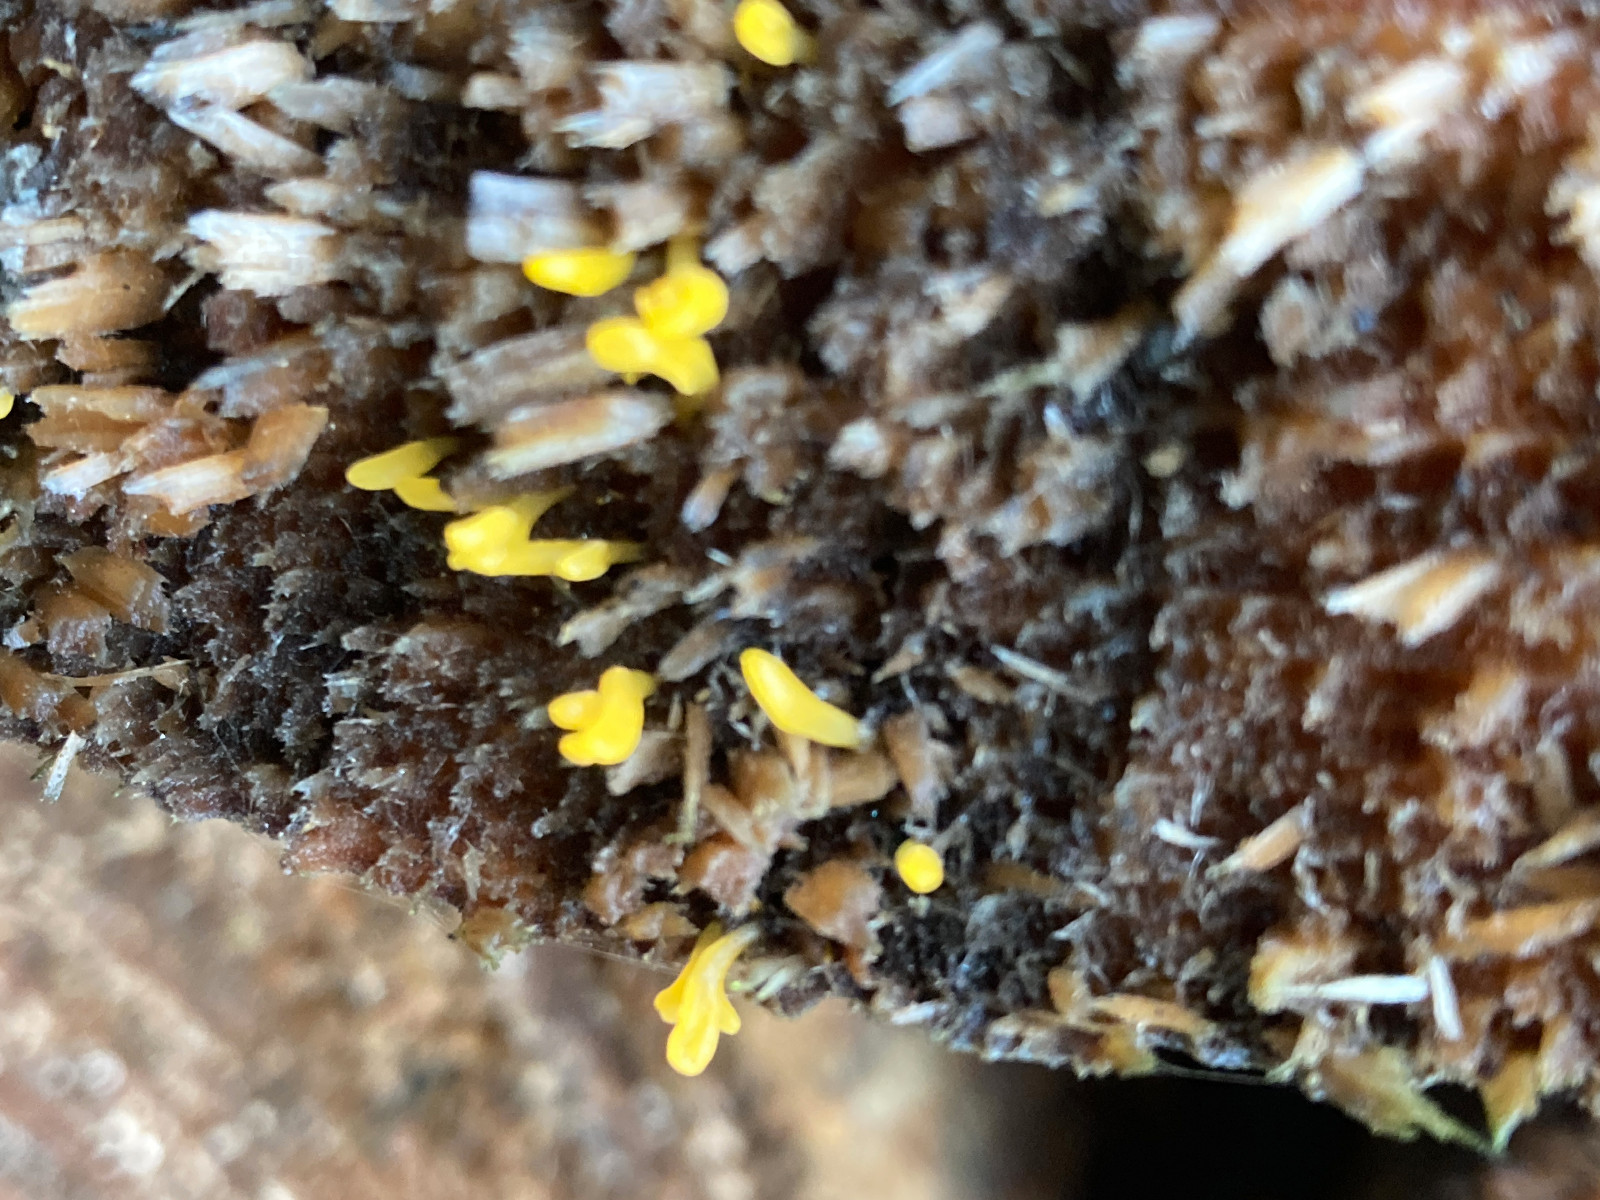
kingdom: Fungi
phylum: Basidiomycota
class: Dacrymycetes
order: Dacrymycetales
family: Dacrymycetaceae
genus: Calocera
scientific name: Calocera furcata
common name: fyrre-guldgaffel
